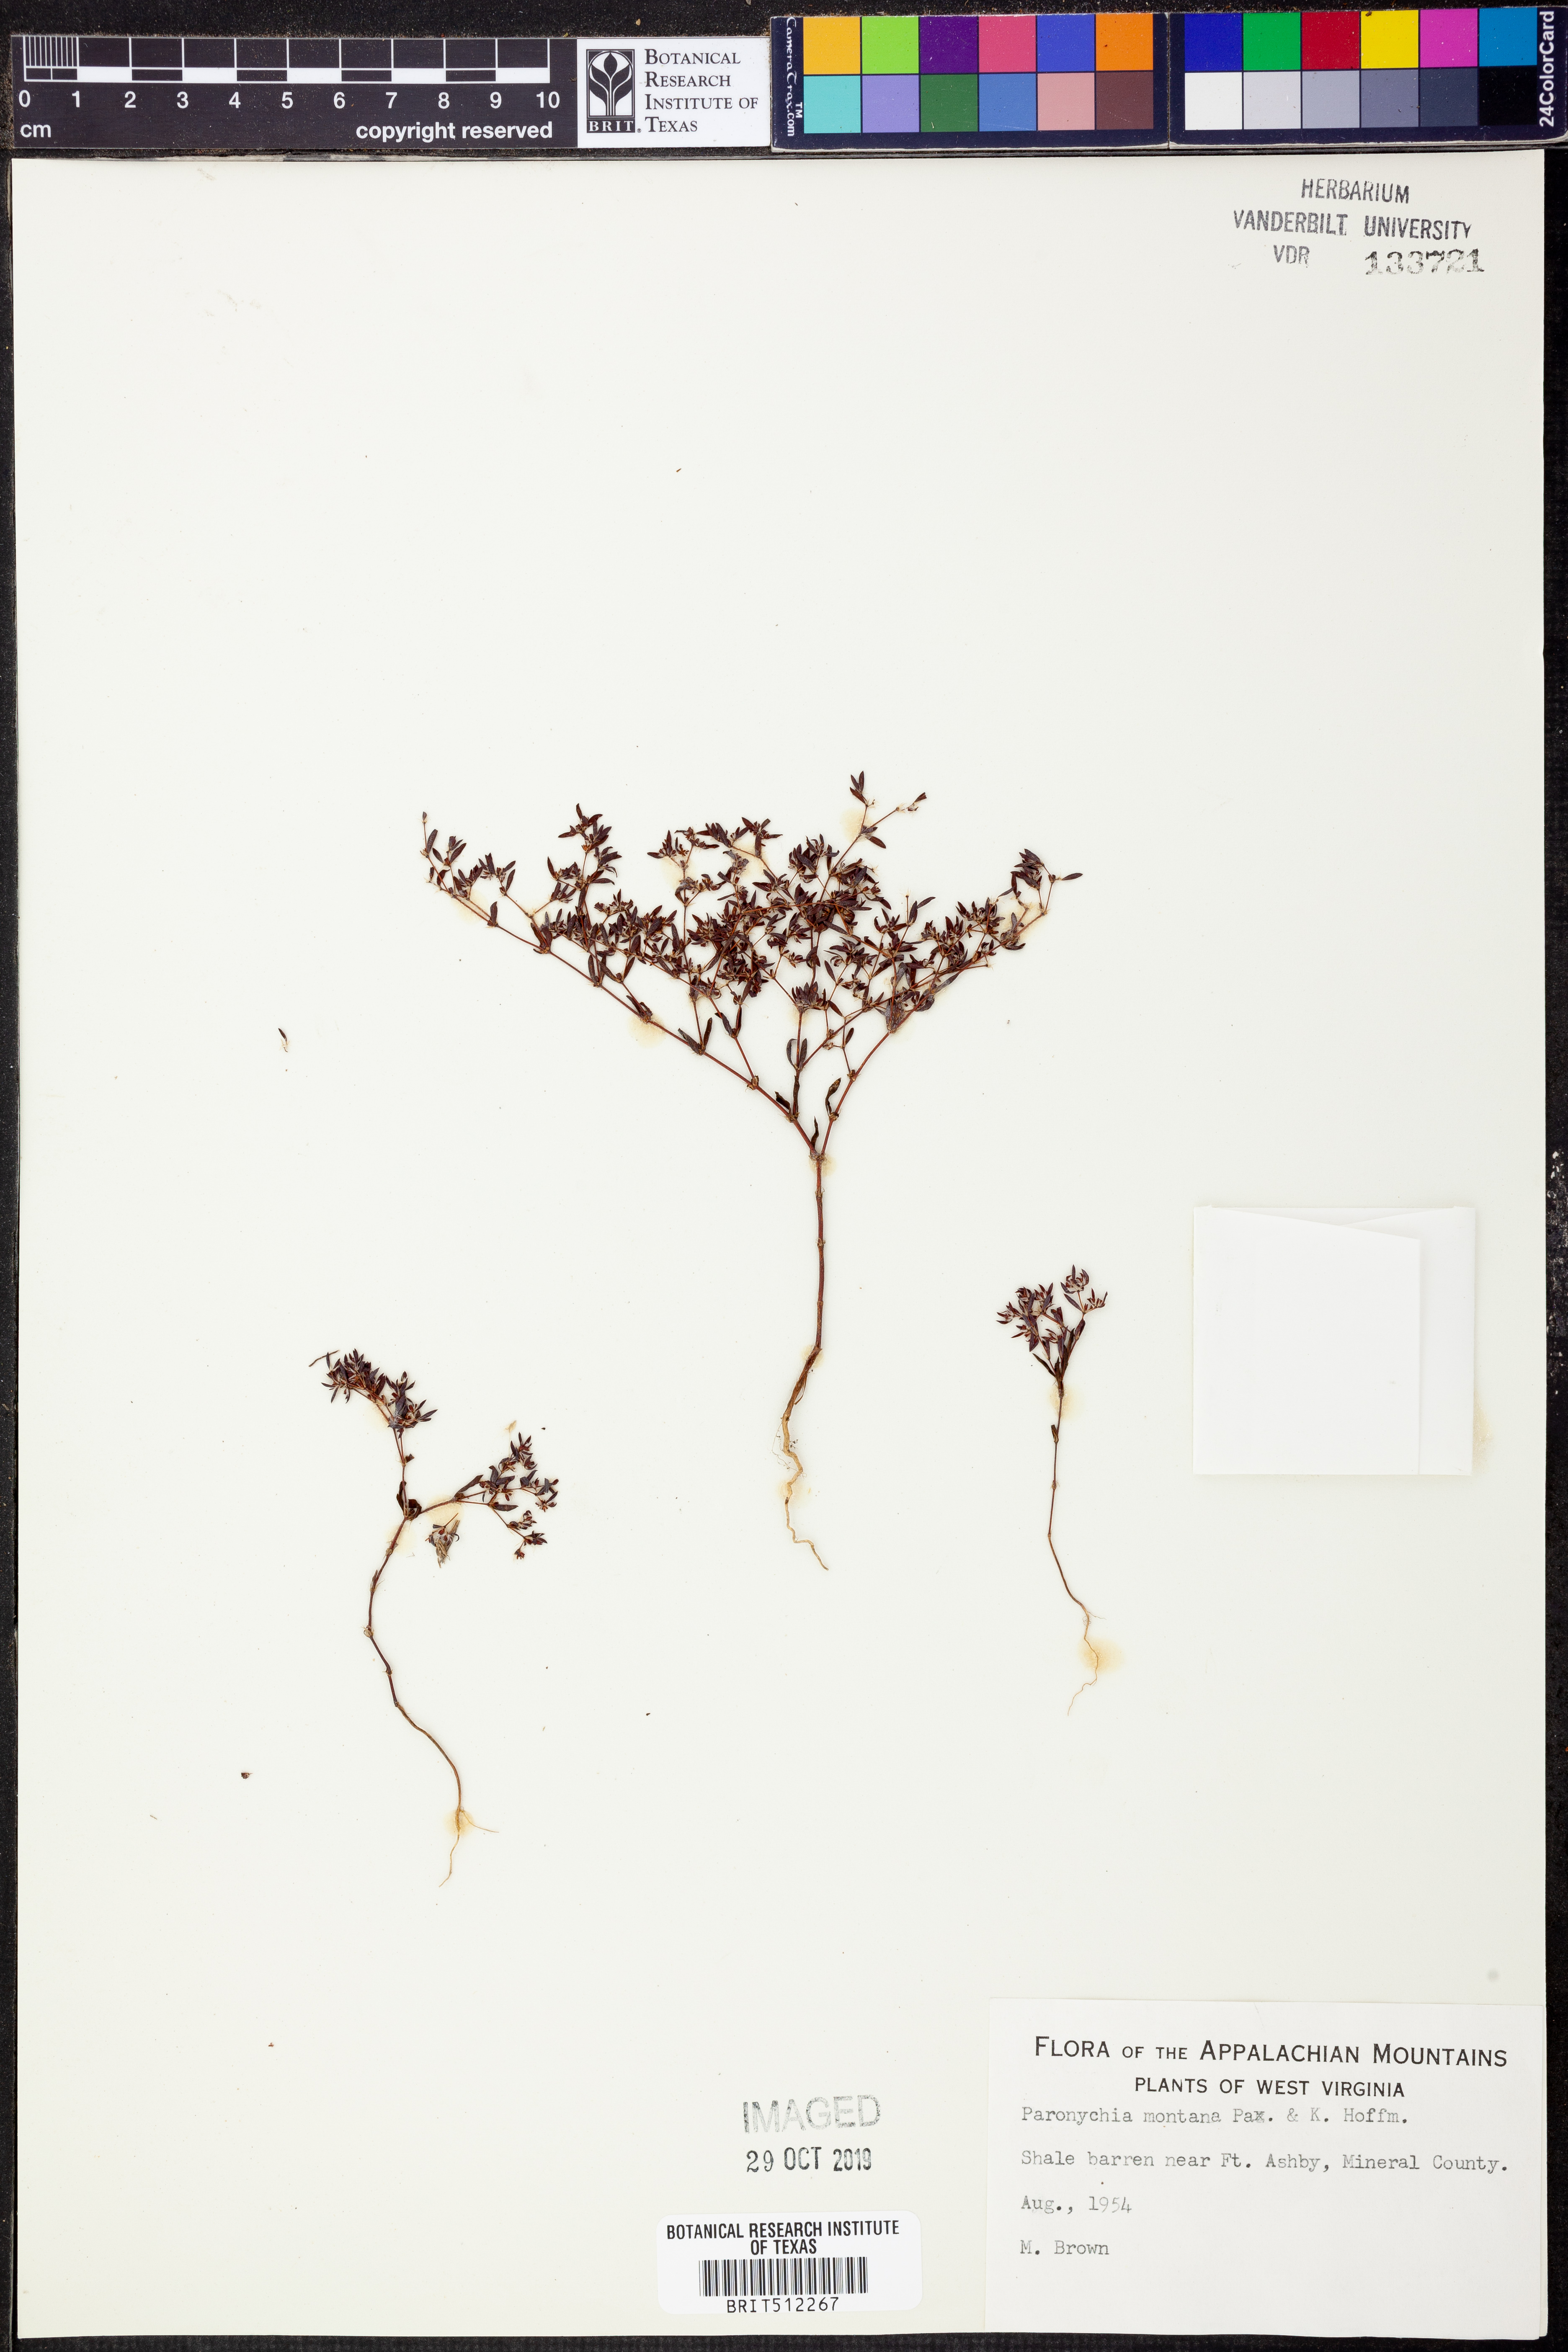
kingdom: Plantae
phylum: Tracheophyta
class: Magnoliopsida
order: Caryophyllales
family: Caryophyllaceae
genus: Paronychia
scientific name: Paronychia fastigiata
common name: Branching forked whitlow-wort
